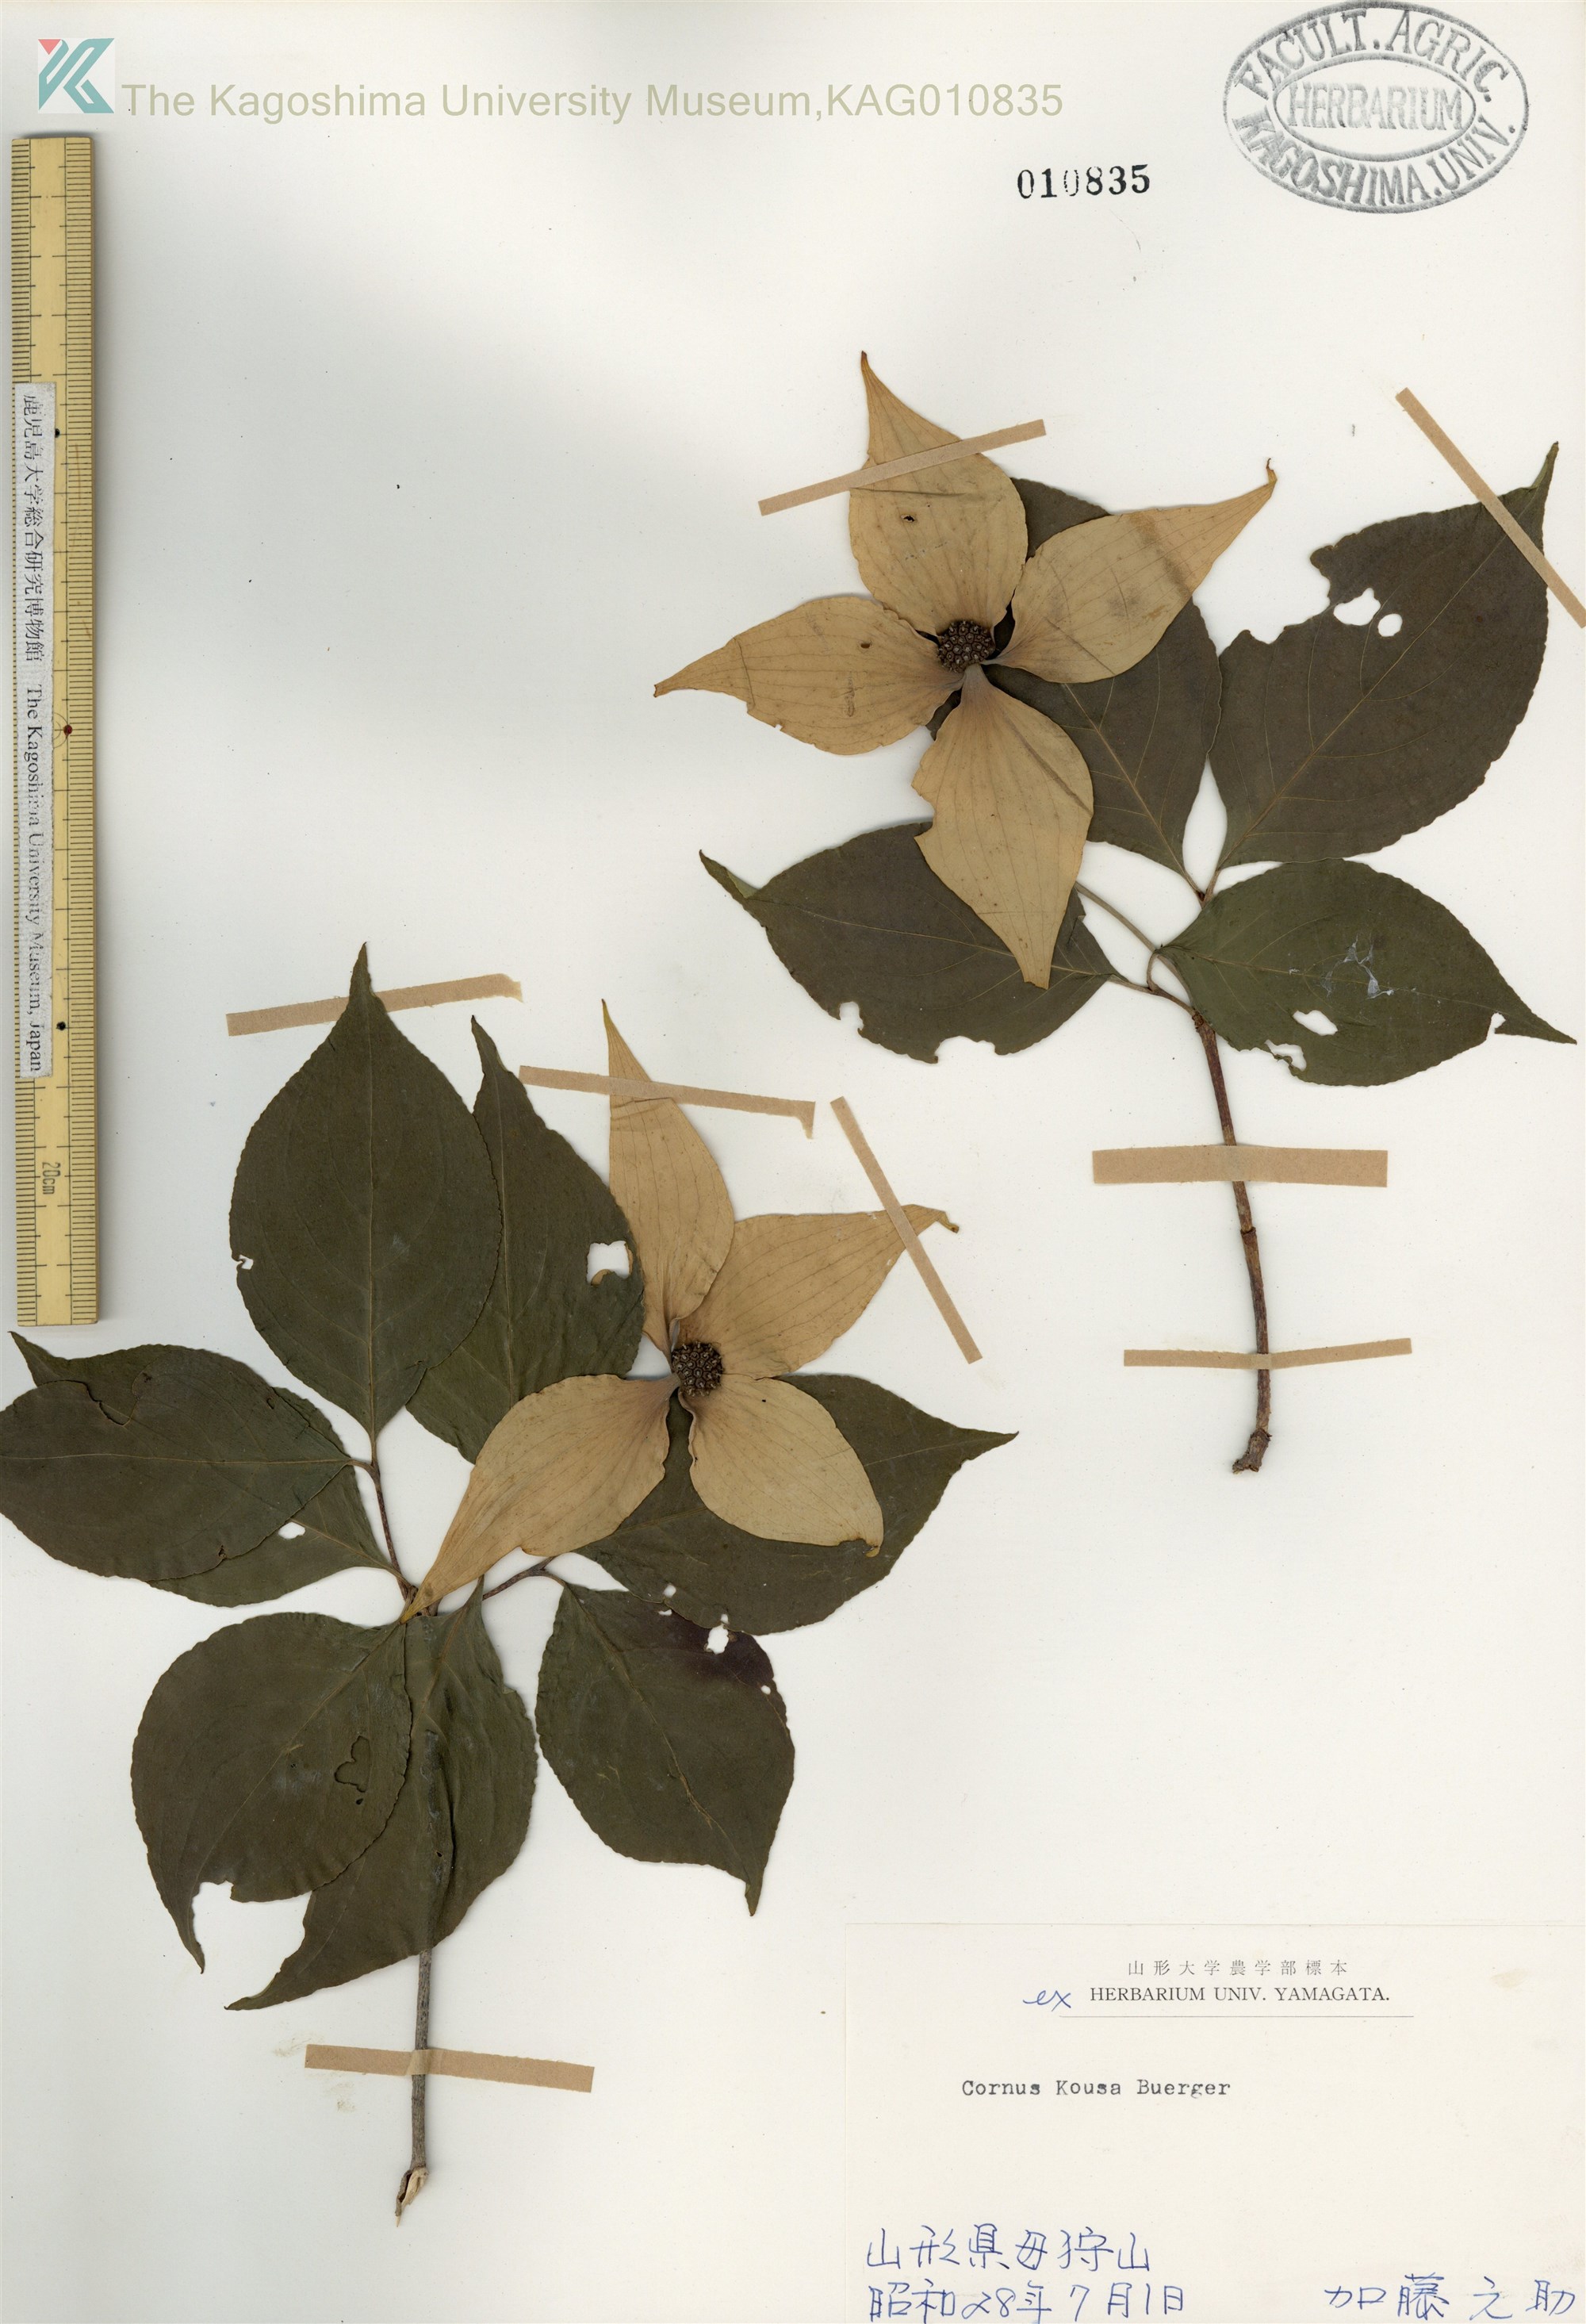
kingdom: Plantae
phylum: Tracheophyta
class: Magnoliopsida
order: Cornales
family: Cornaceae
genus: Cornus
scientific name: Cornus kousa
